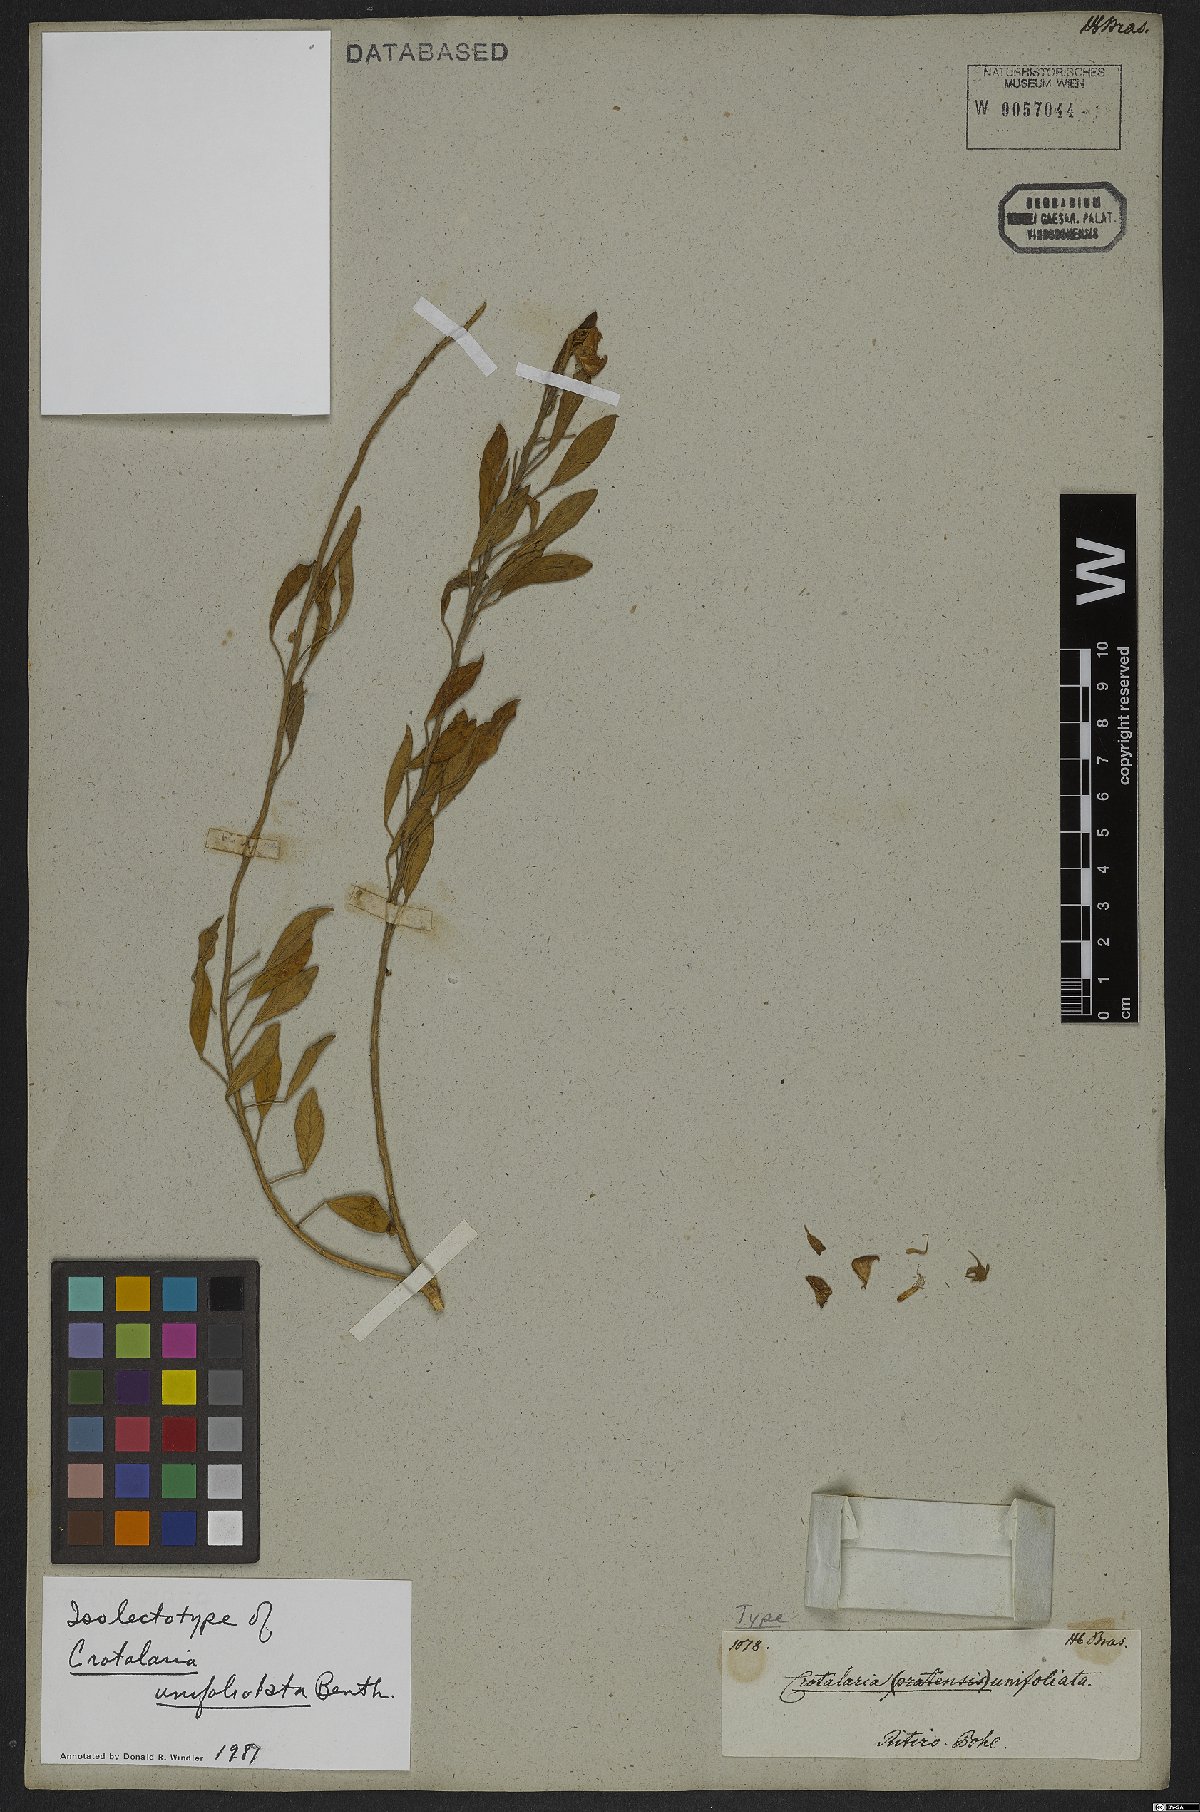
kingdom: Plantae
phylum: Tracheophyta
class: Magnoliopsida
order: Fabales
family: Fabaceae
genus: Crotalaria
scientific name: Crotalaria unifoliolata
